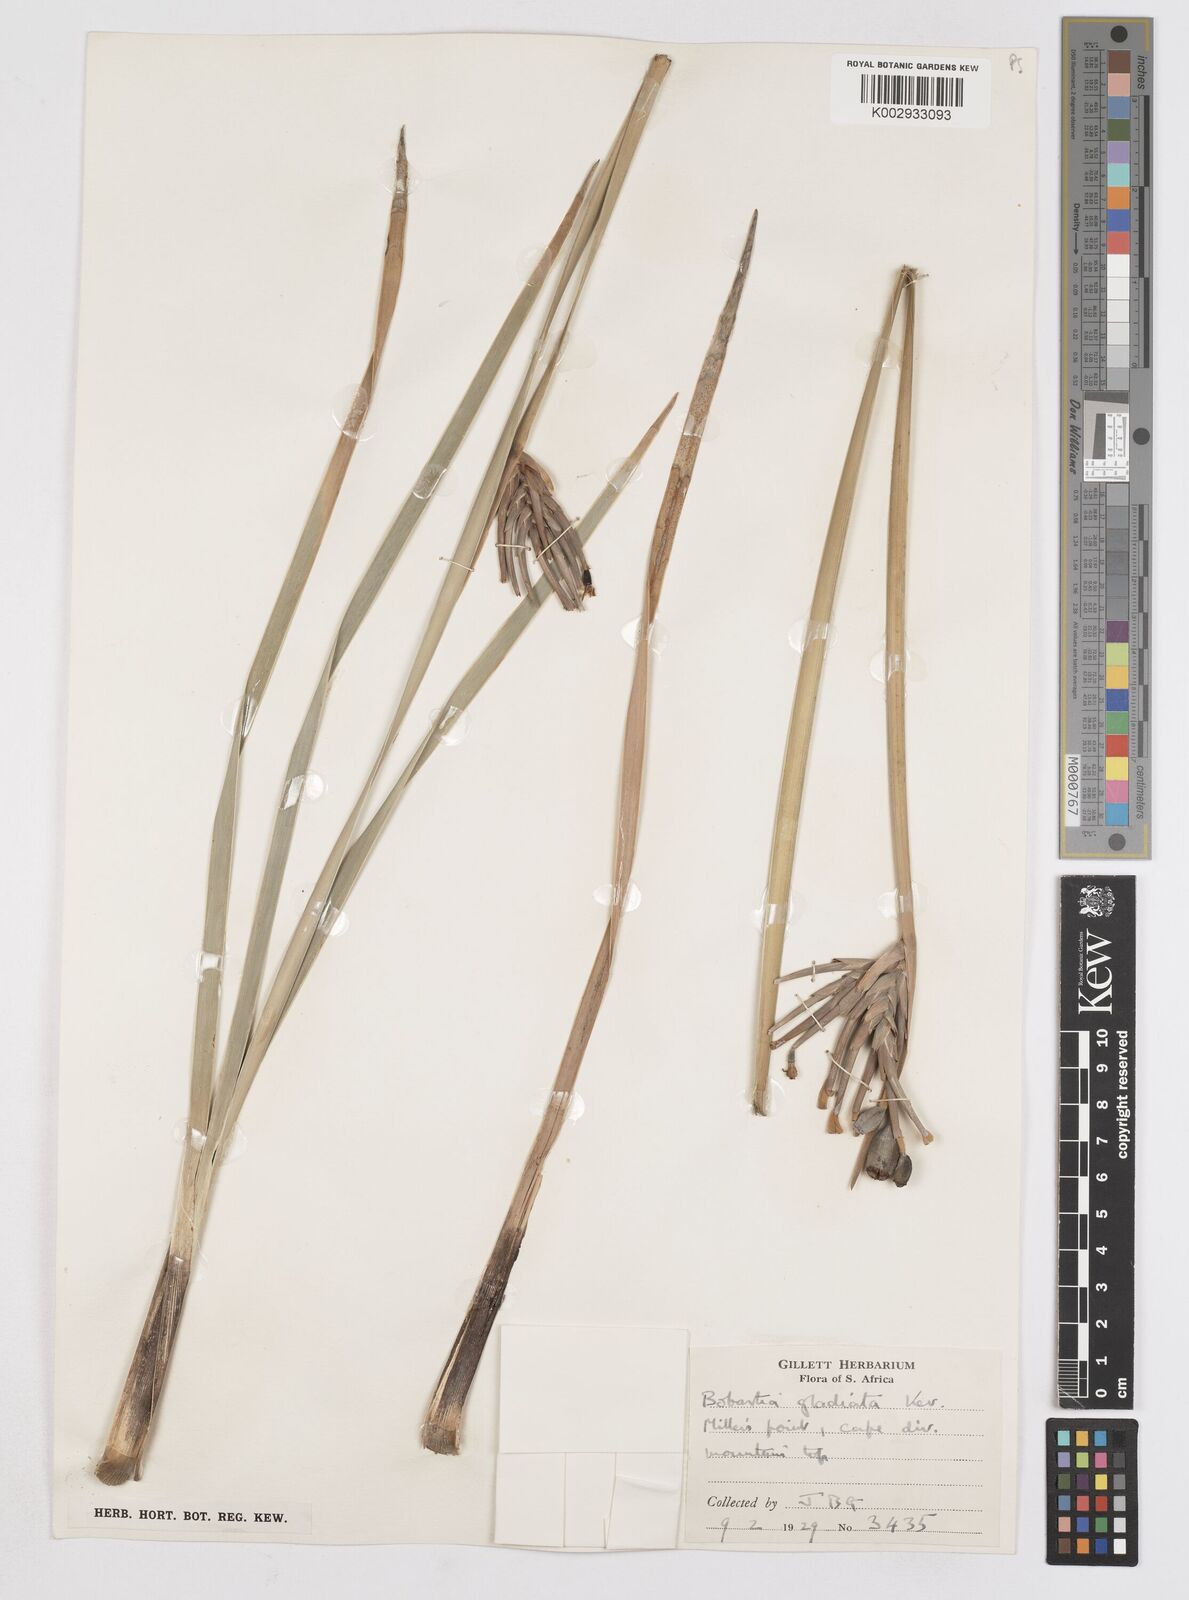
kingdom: Plantae
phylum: Tracheophyta
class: Liliopsida
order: Asparagales
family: Iridaceae
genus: Bobartia
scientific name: Bobartia gladiata
